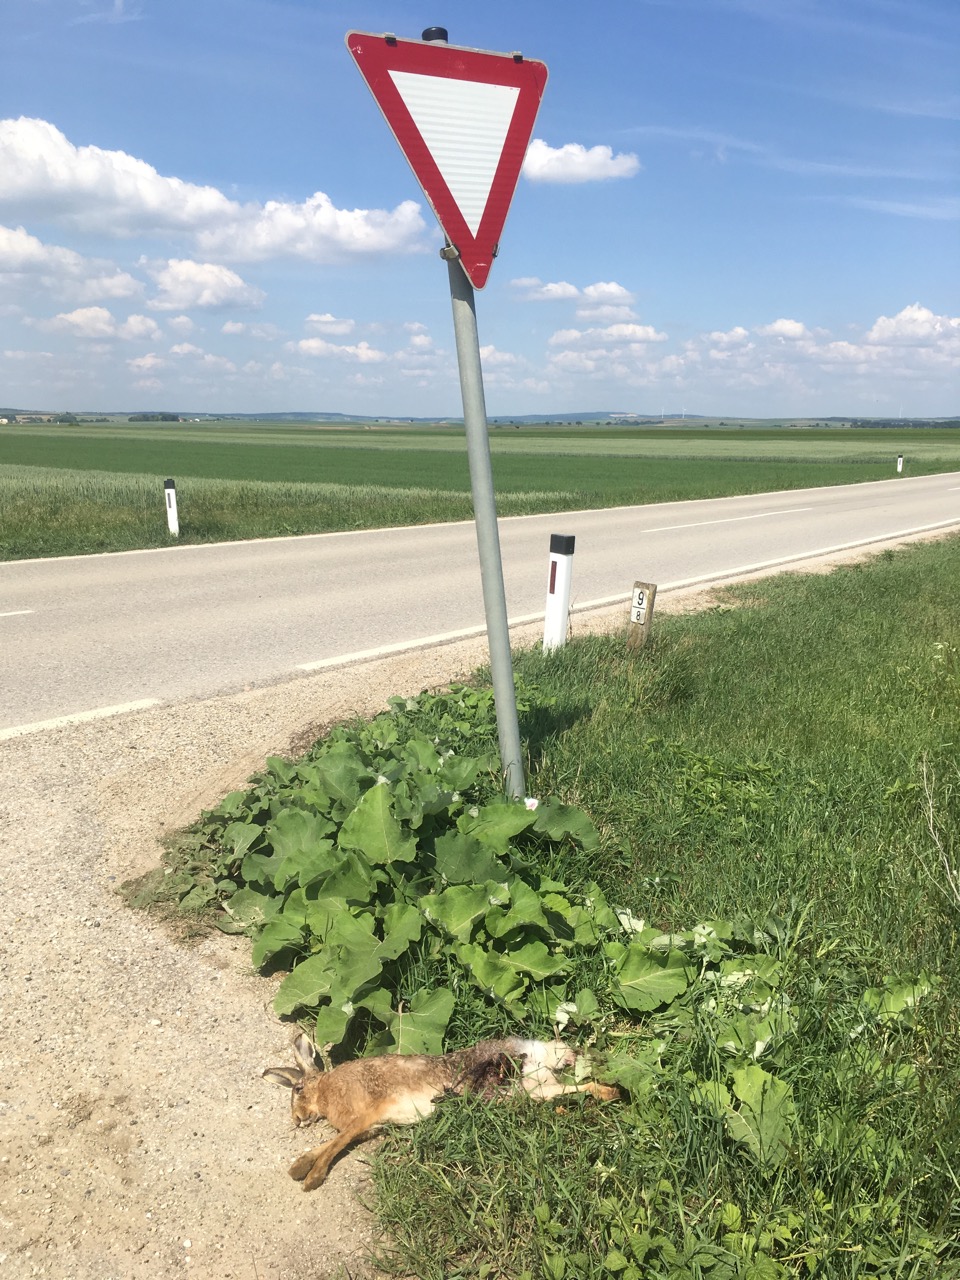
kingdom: Animalia
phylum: Chordata
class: Mammalia
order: Lagomorpha
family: Leporidae
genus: Lepus
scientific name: Lepus europaeus
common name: European hare
